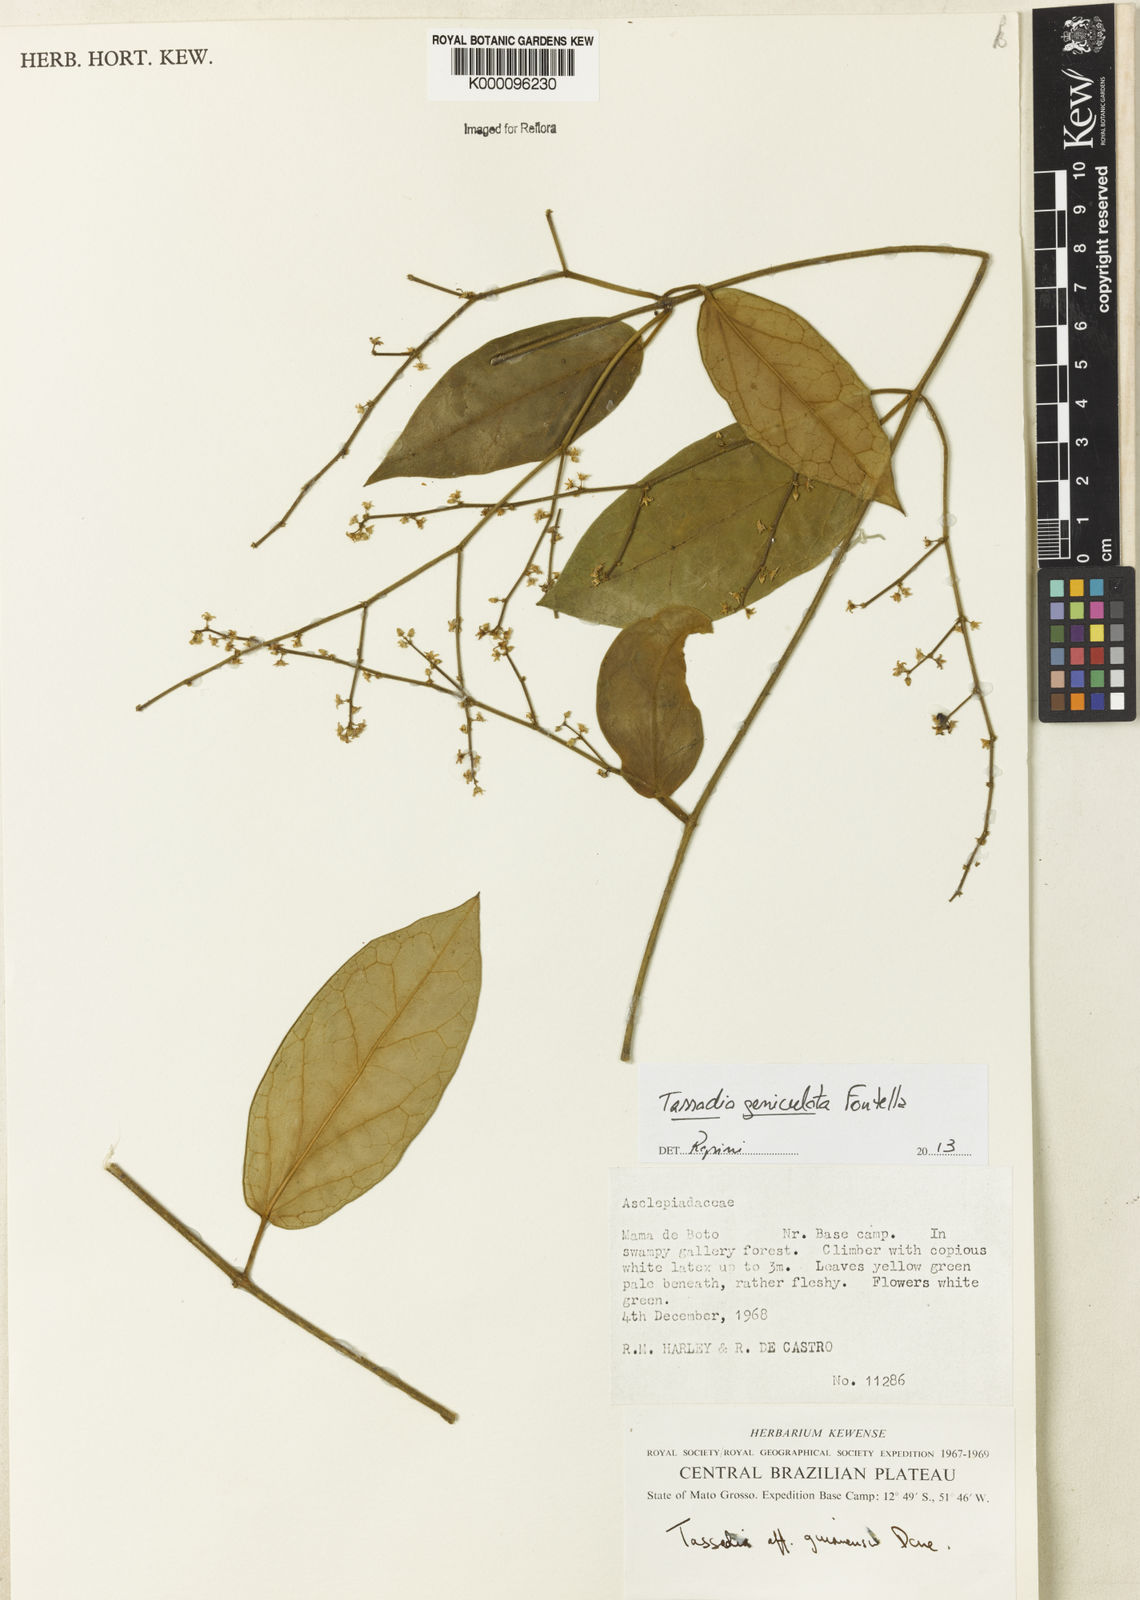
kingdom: Plantae
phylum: Tracheophyta
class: Magnoliopsida
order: Gentianales
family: Apocynaceae
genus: Tassadia
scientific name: Tassadia geniculata
